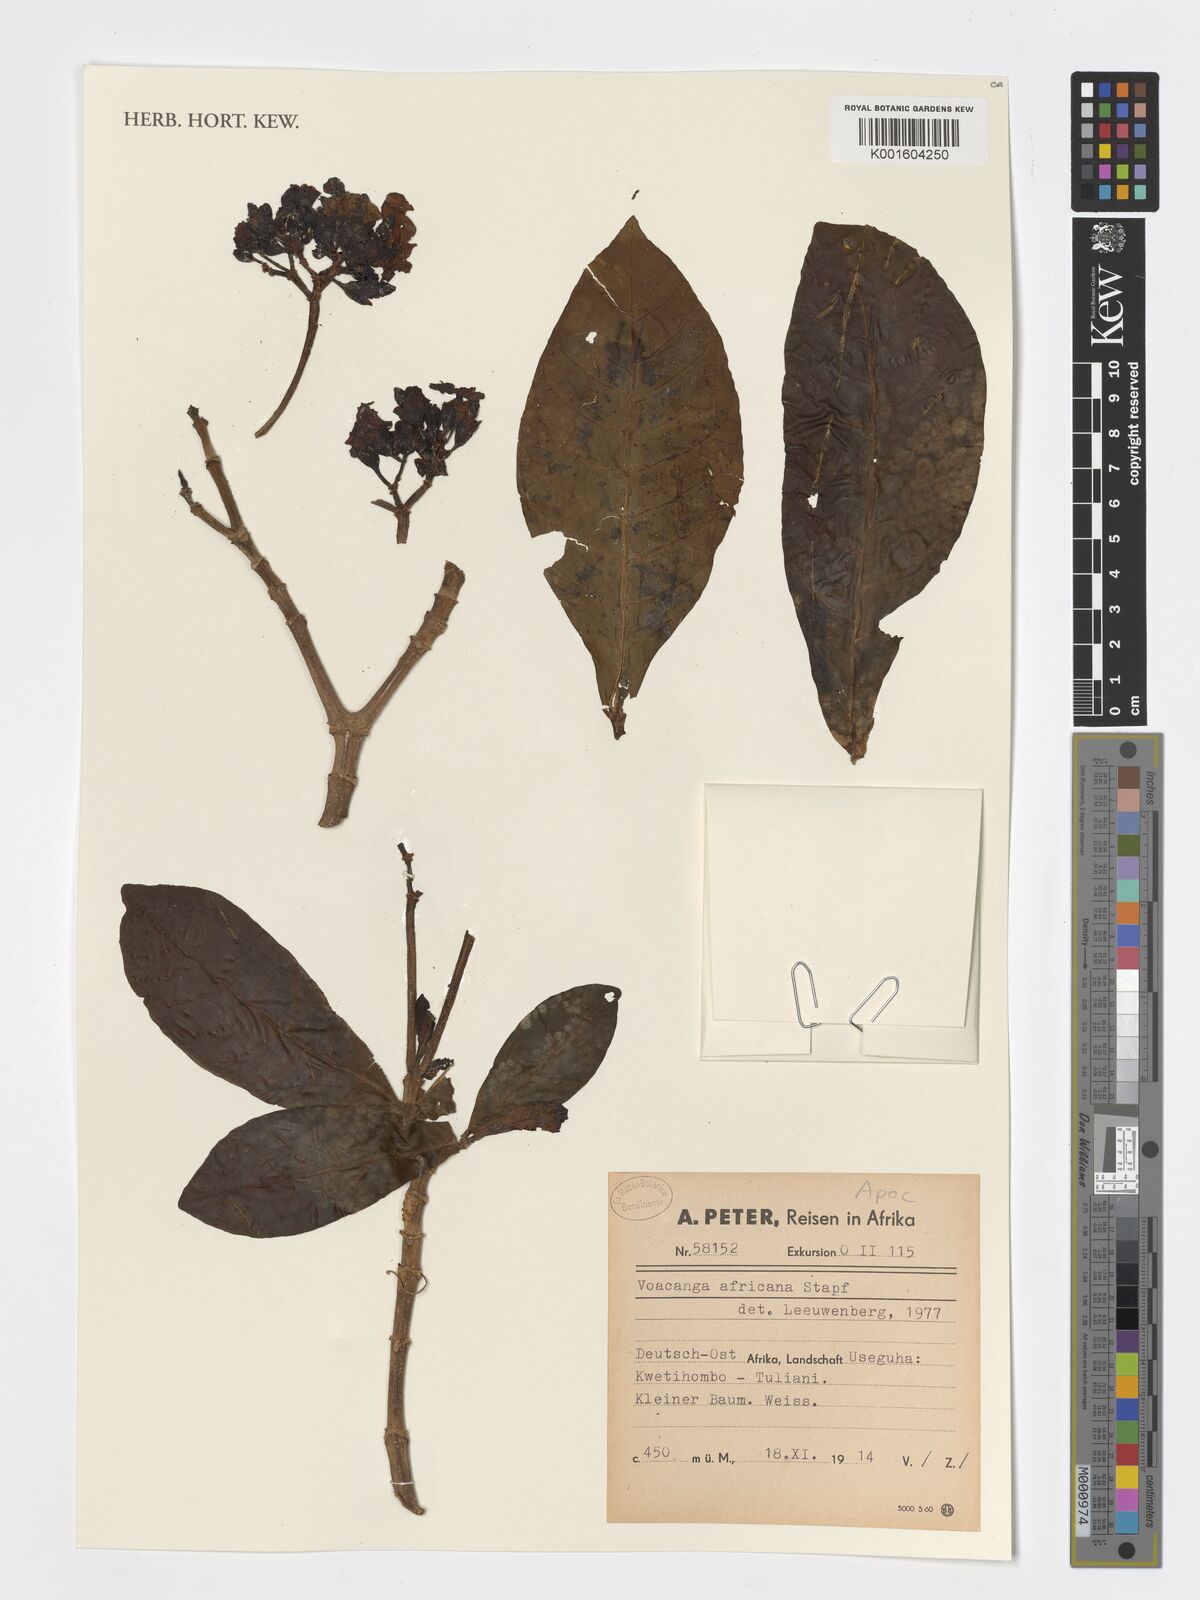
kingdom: Plantae
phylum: Tracheophyta
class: Magnoliopsida
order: Gentianales
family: Apocynaceae
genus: Voacanga
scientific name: Voacanga africana
